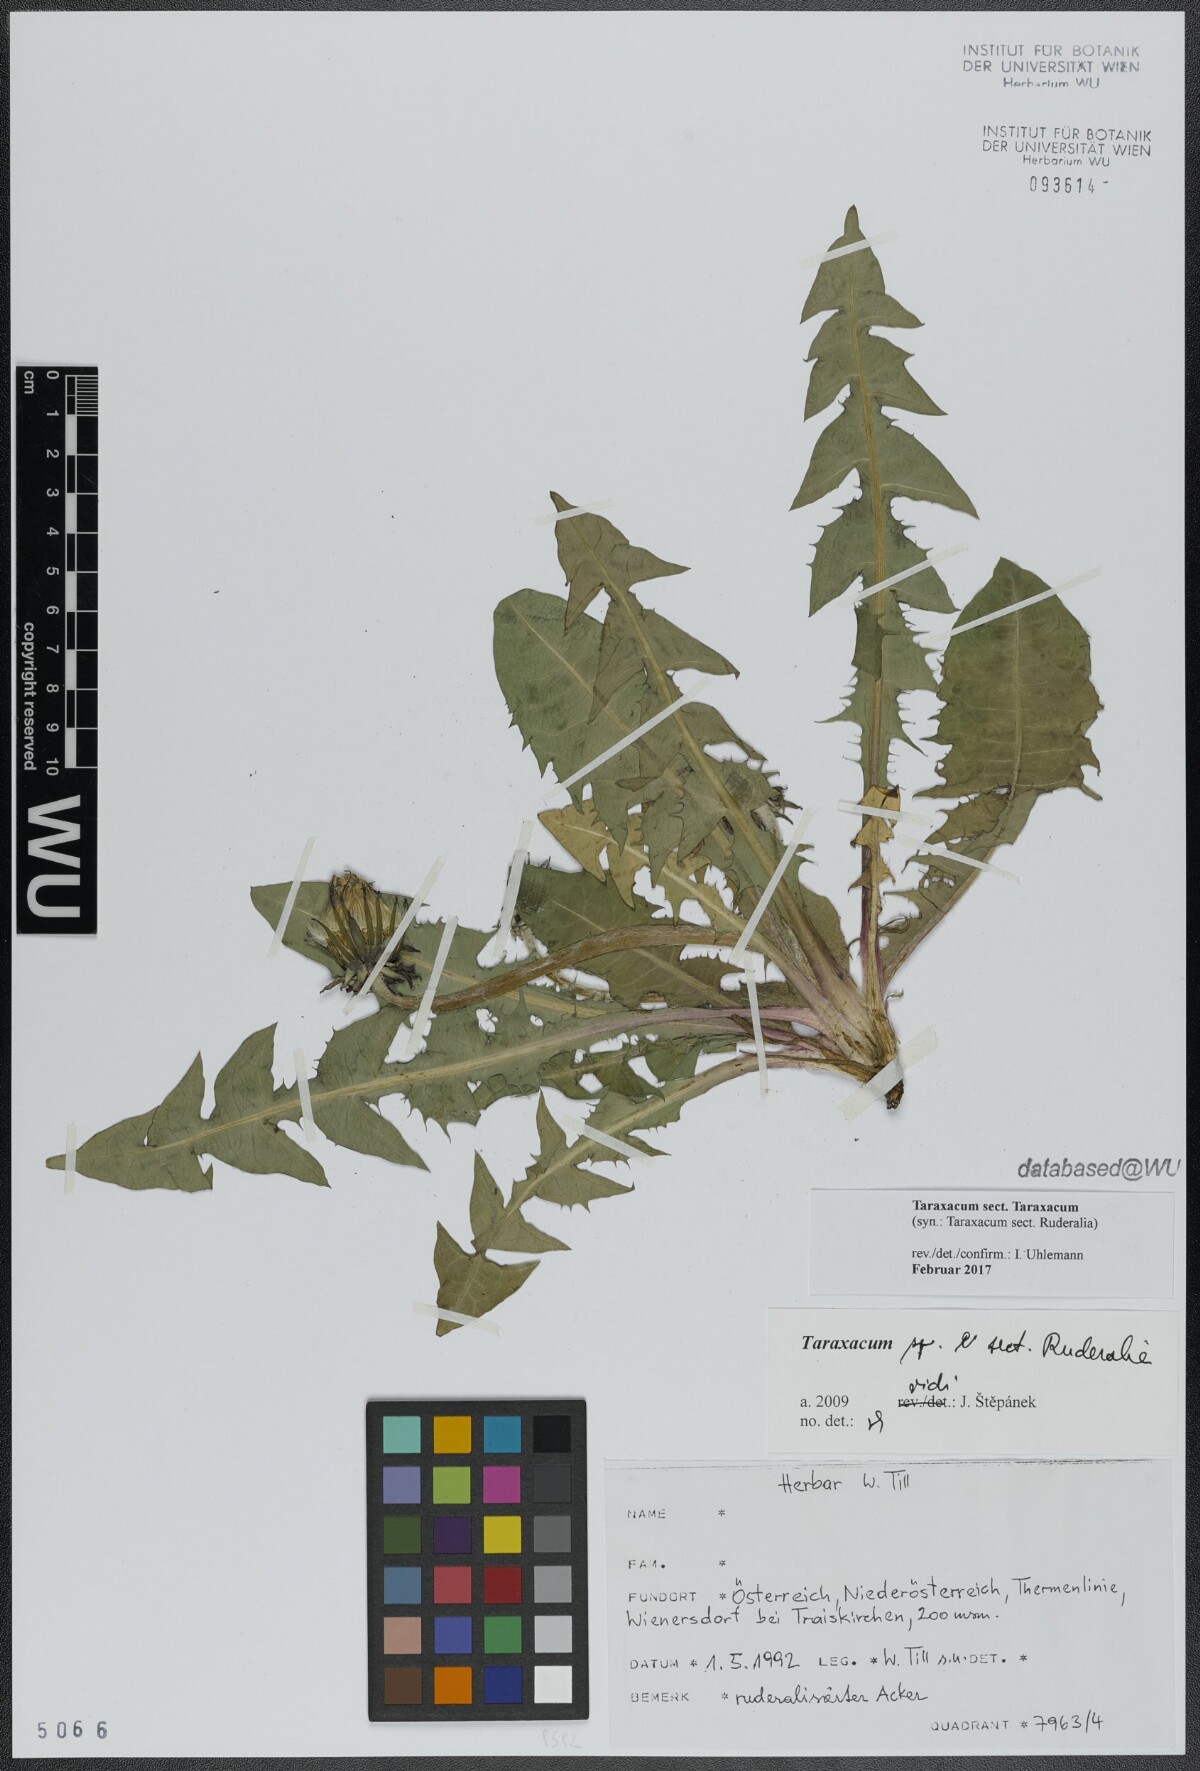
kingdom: Plantae
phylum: Tracheophyta
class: Magnoliopsida
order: Asterales
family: Asteraceae
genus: Taraxacum
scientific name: Taraxacum
